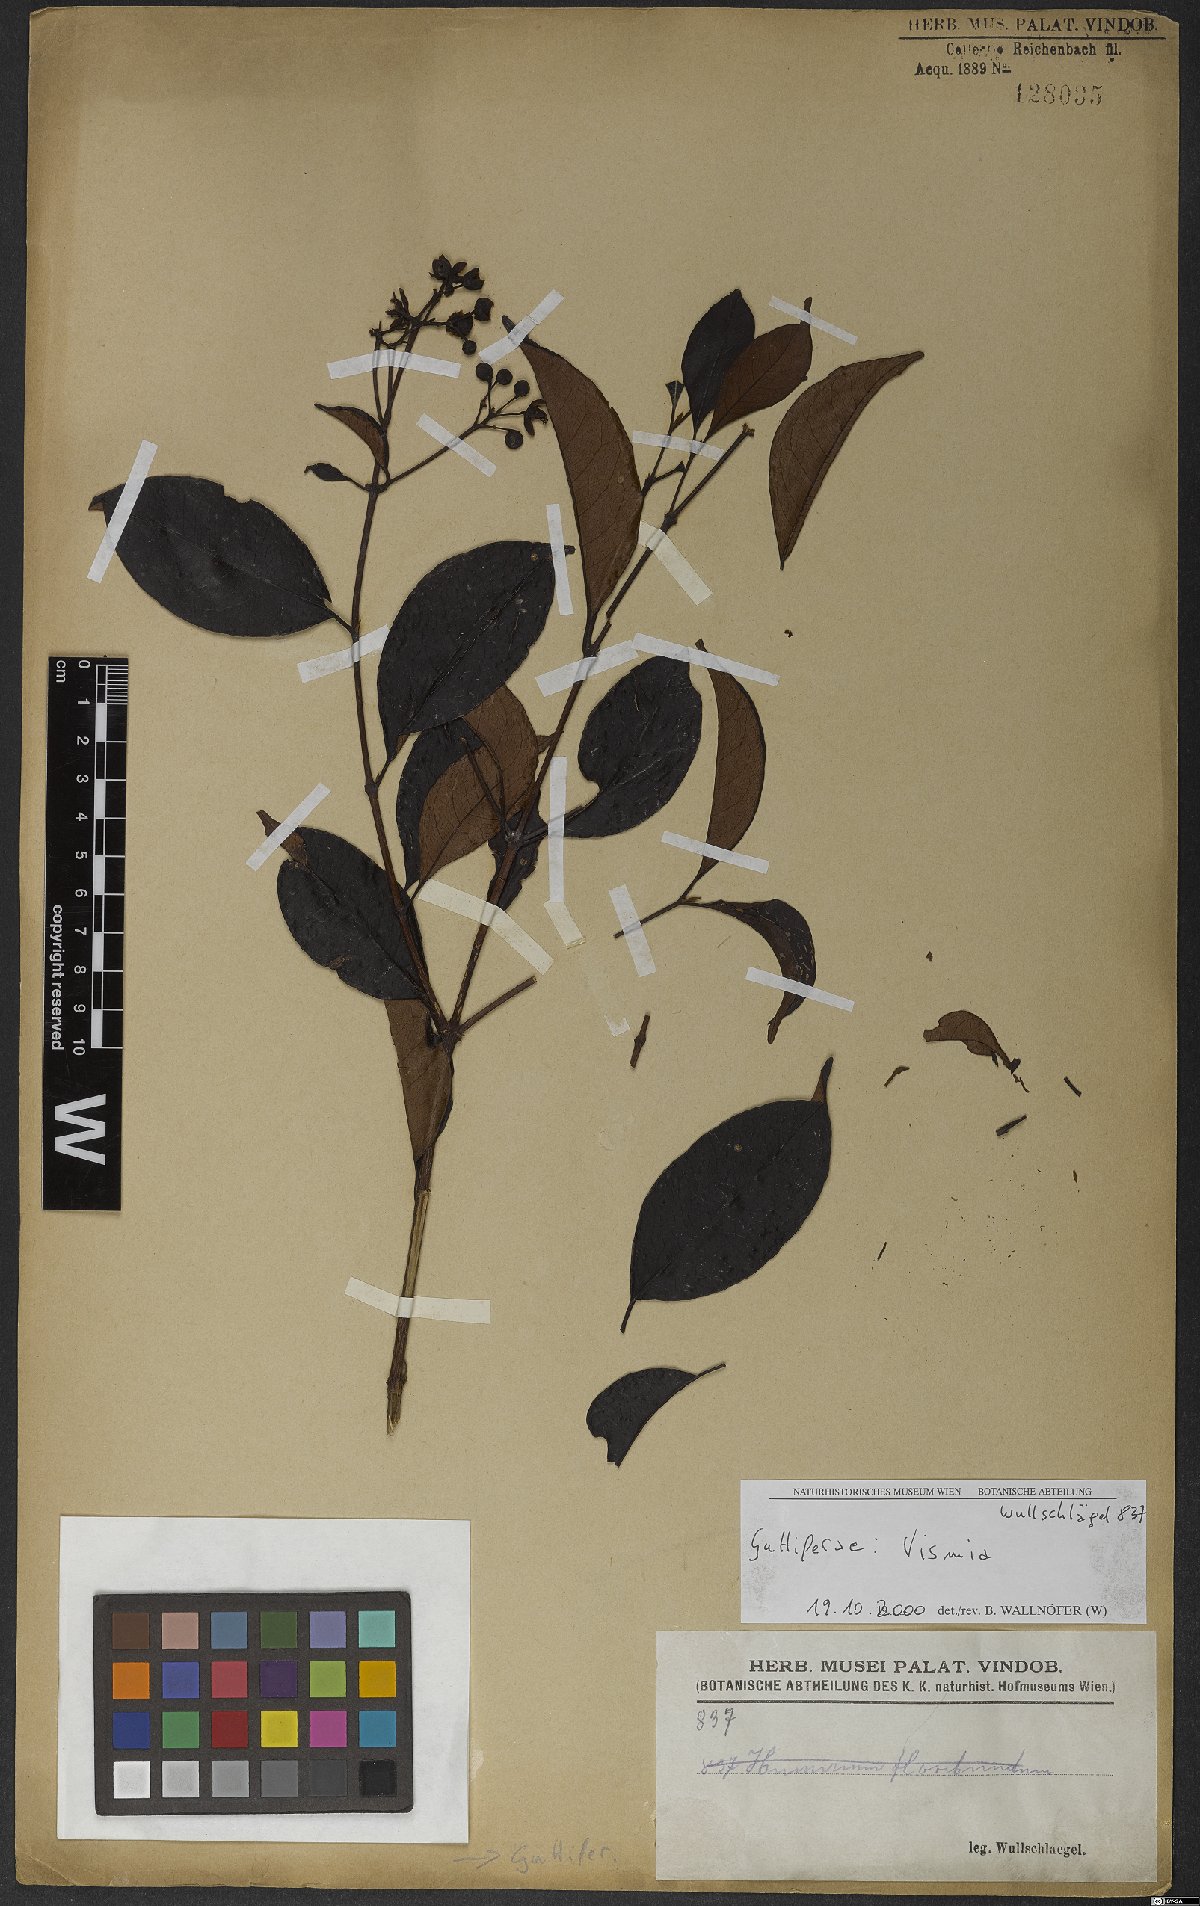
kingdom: Plantae
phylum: Tracheophyta
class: Magnoliopsida
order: Malpighiales
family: Hypericaceae
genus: Vismia
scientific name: Vismia cayennensis
